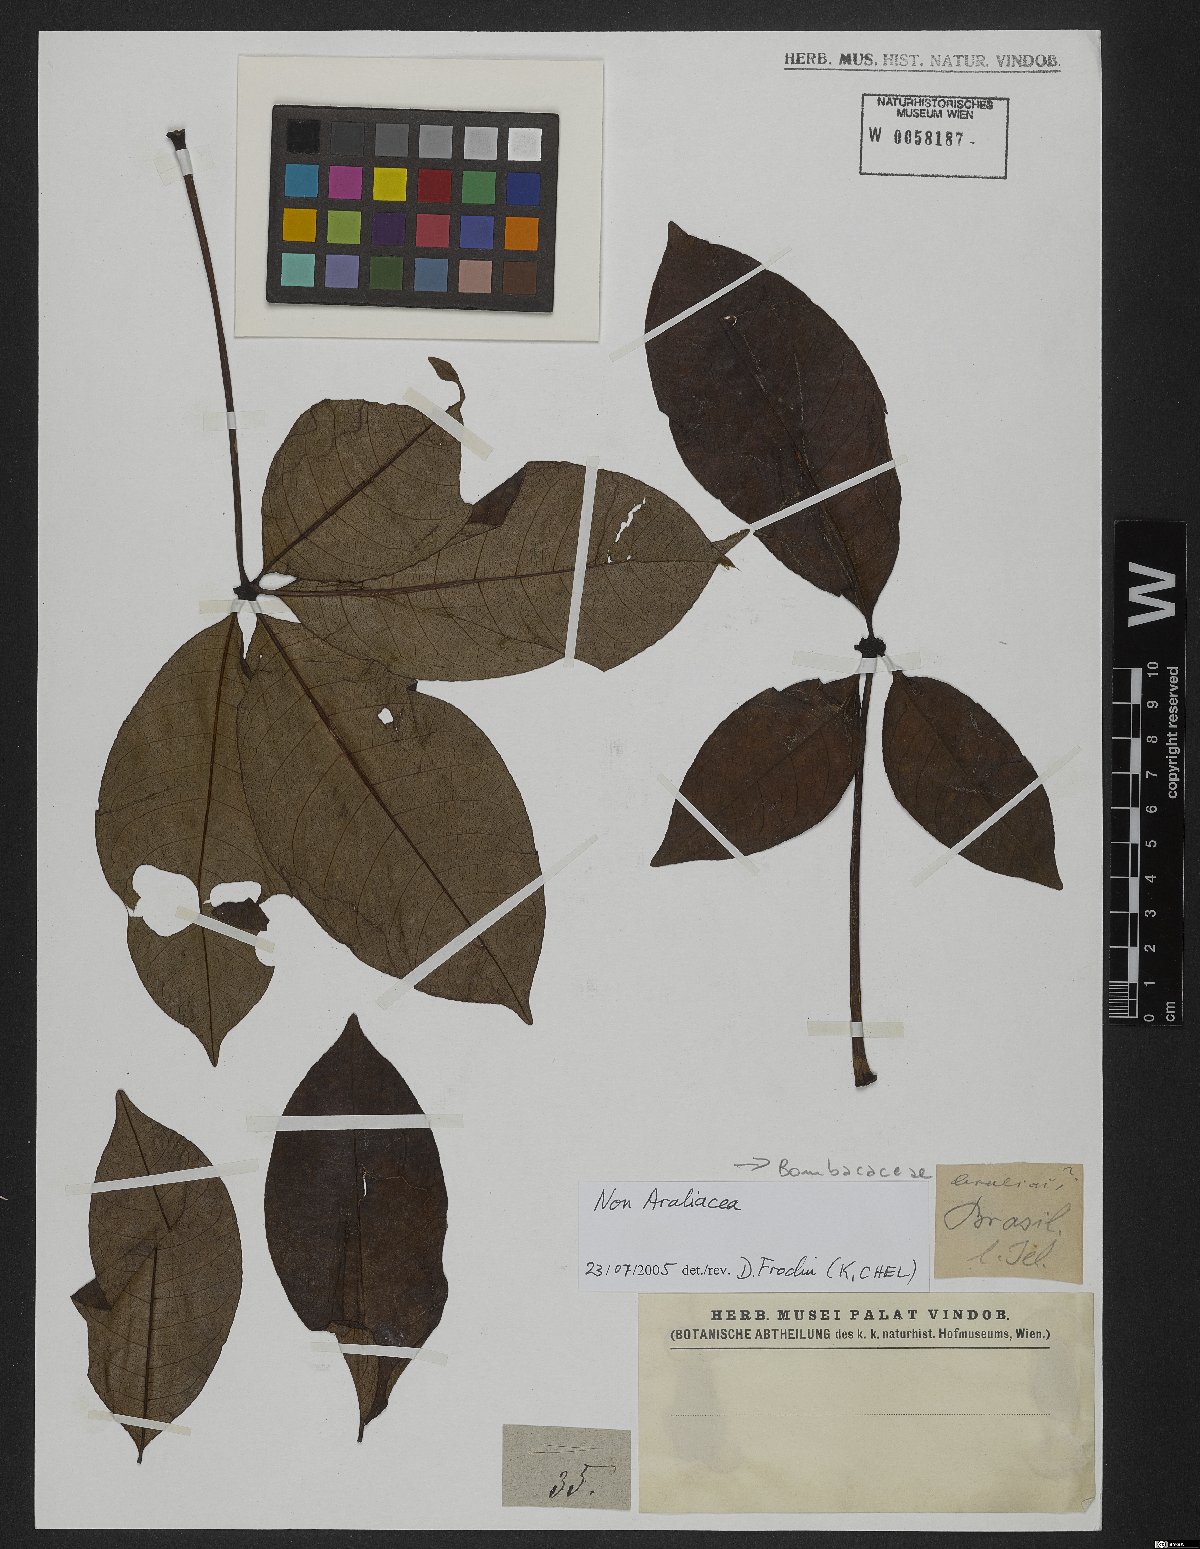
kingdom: Plantae
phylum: Tracheophyta
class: Magnoliopsida
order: Malvales
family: Malvaceae
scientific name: Malvaceae
